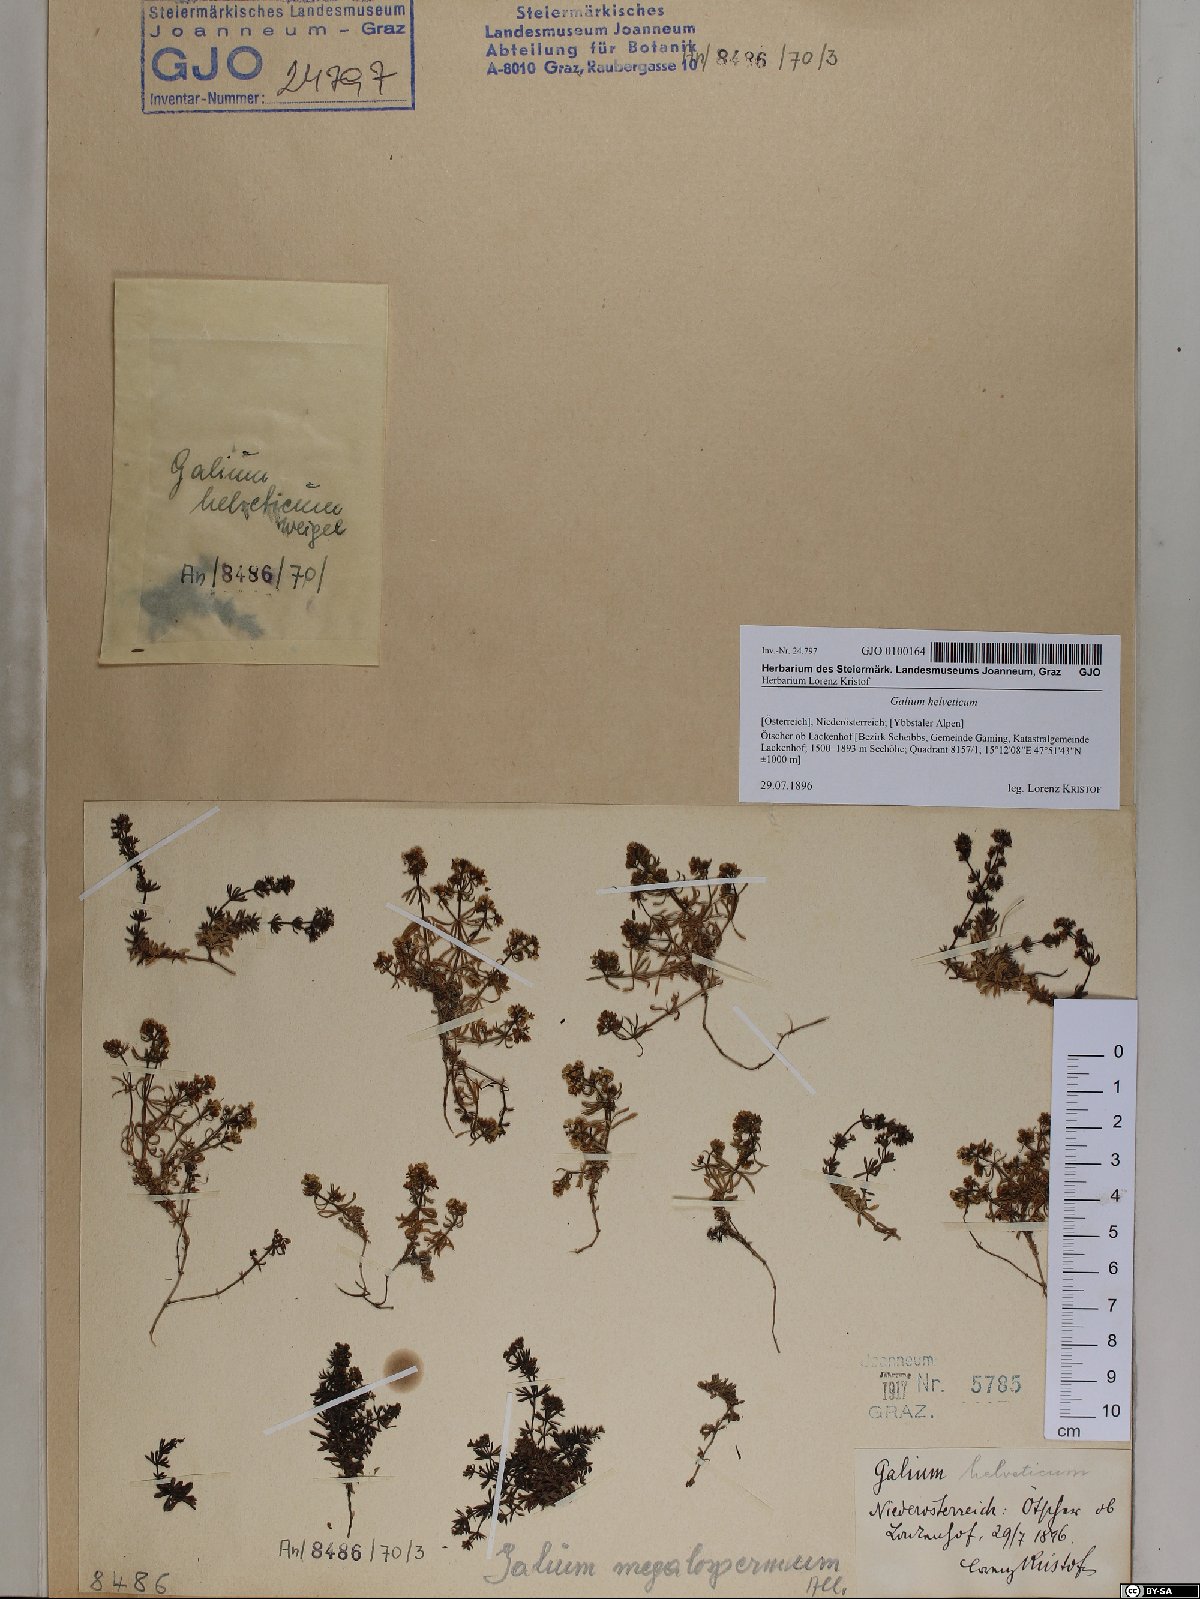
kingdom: Plantae
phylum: Tracheophyta
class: Magnoliopsida
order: Gentianales
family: Rubiaceae
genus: Galium
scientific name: Galium saxatile
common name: Heath bedstraw
